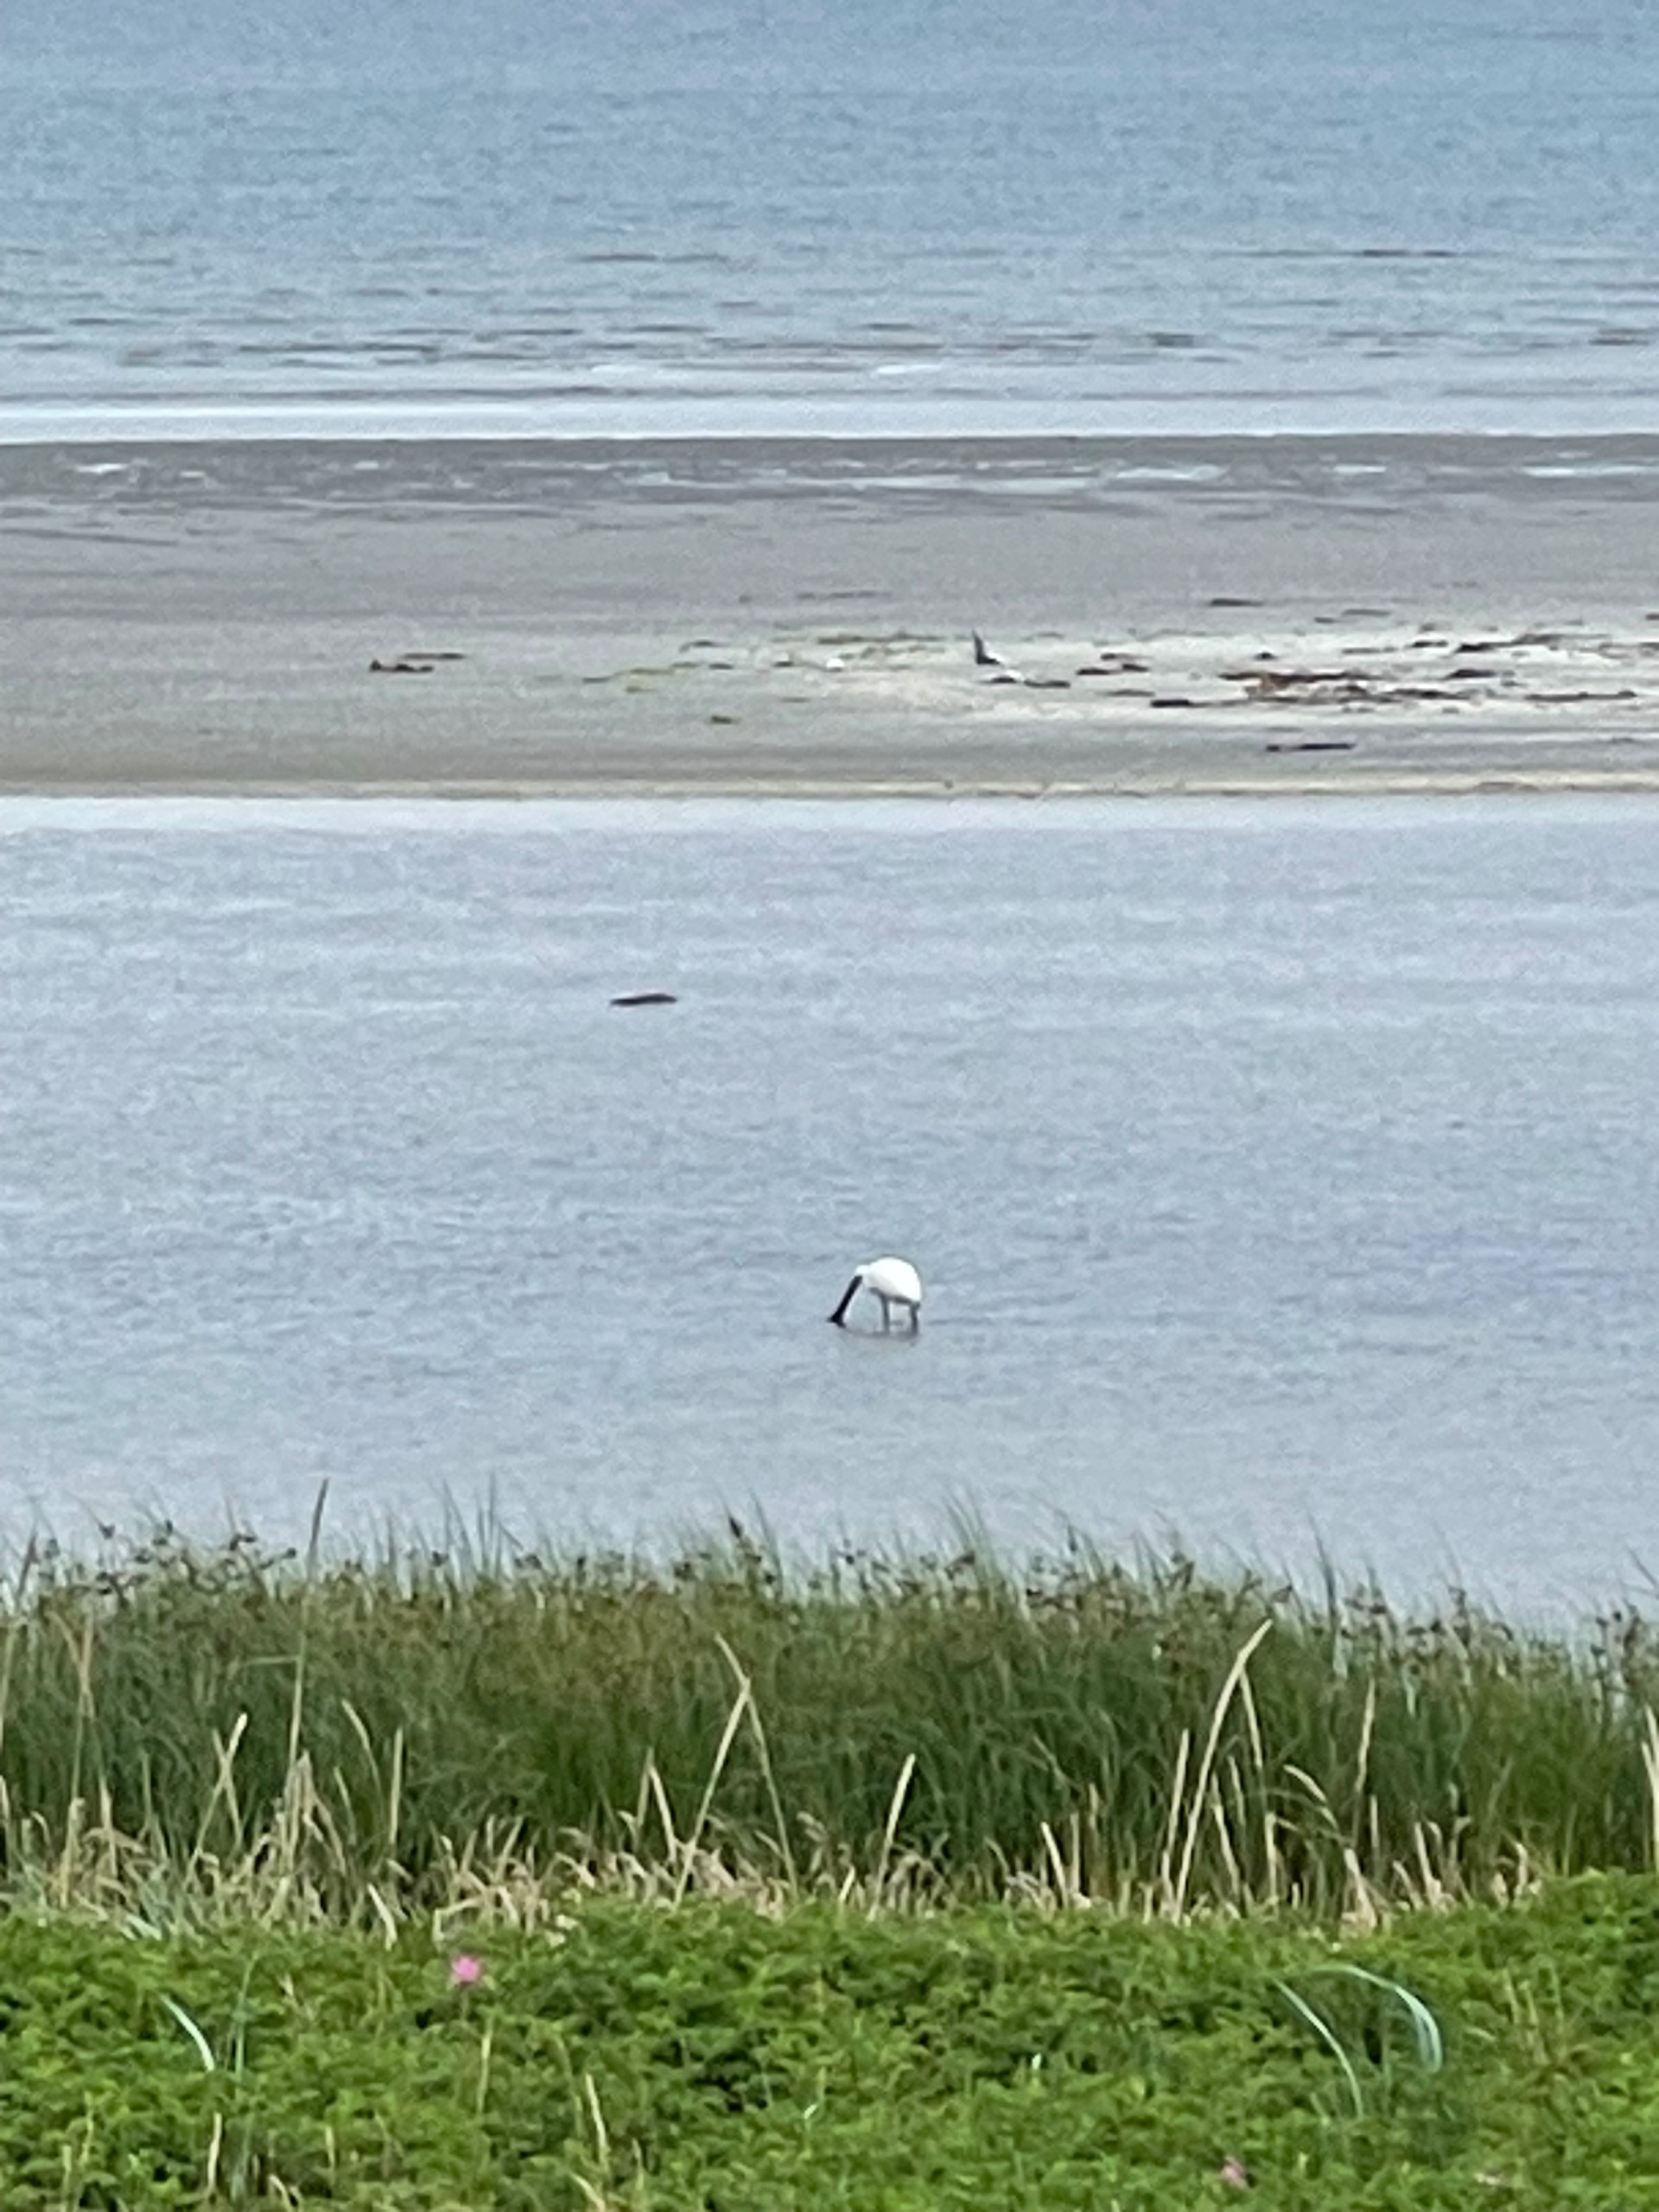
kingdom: Animalia
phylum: Chordata
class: Aves
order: Pelecaniformes
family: Threskiornithidae
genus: Platalea
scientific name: Platalea leucorodia
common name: Skestork
